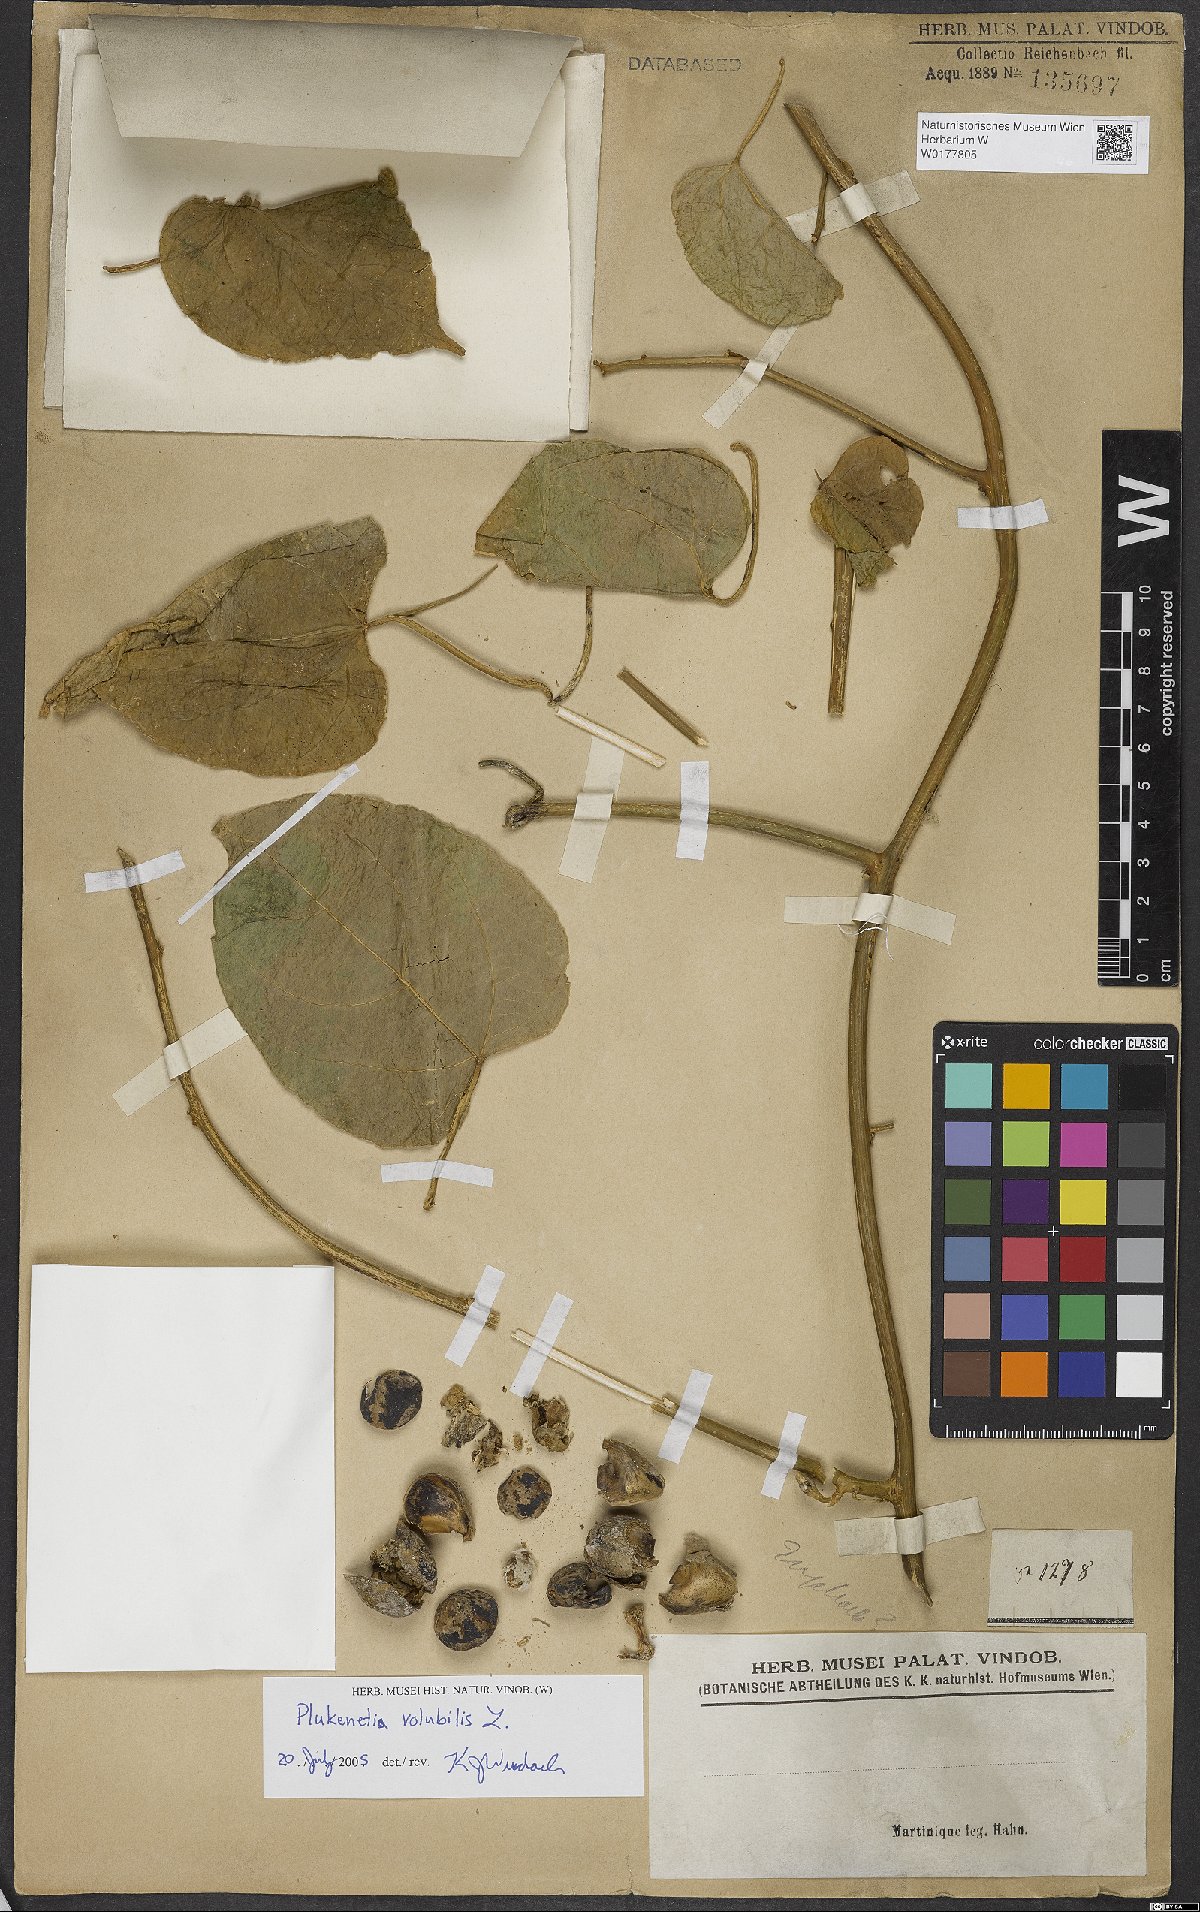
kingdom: Plantae
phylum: Tracheophyta
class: Magnoliopsida
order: Malpighiales
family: Euphorbiaceae
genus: Plukenetia
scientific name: Plukenetia volubilis
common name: Inca-peanut
